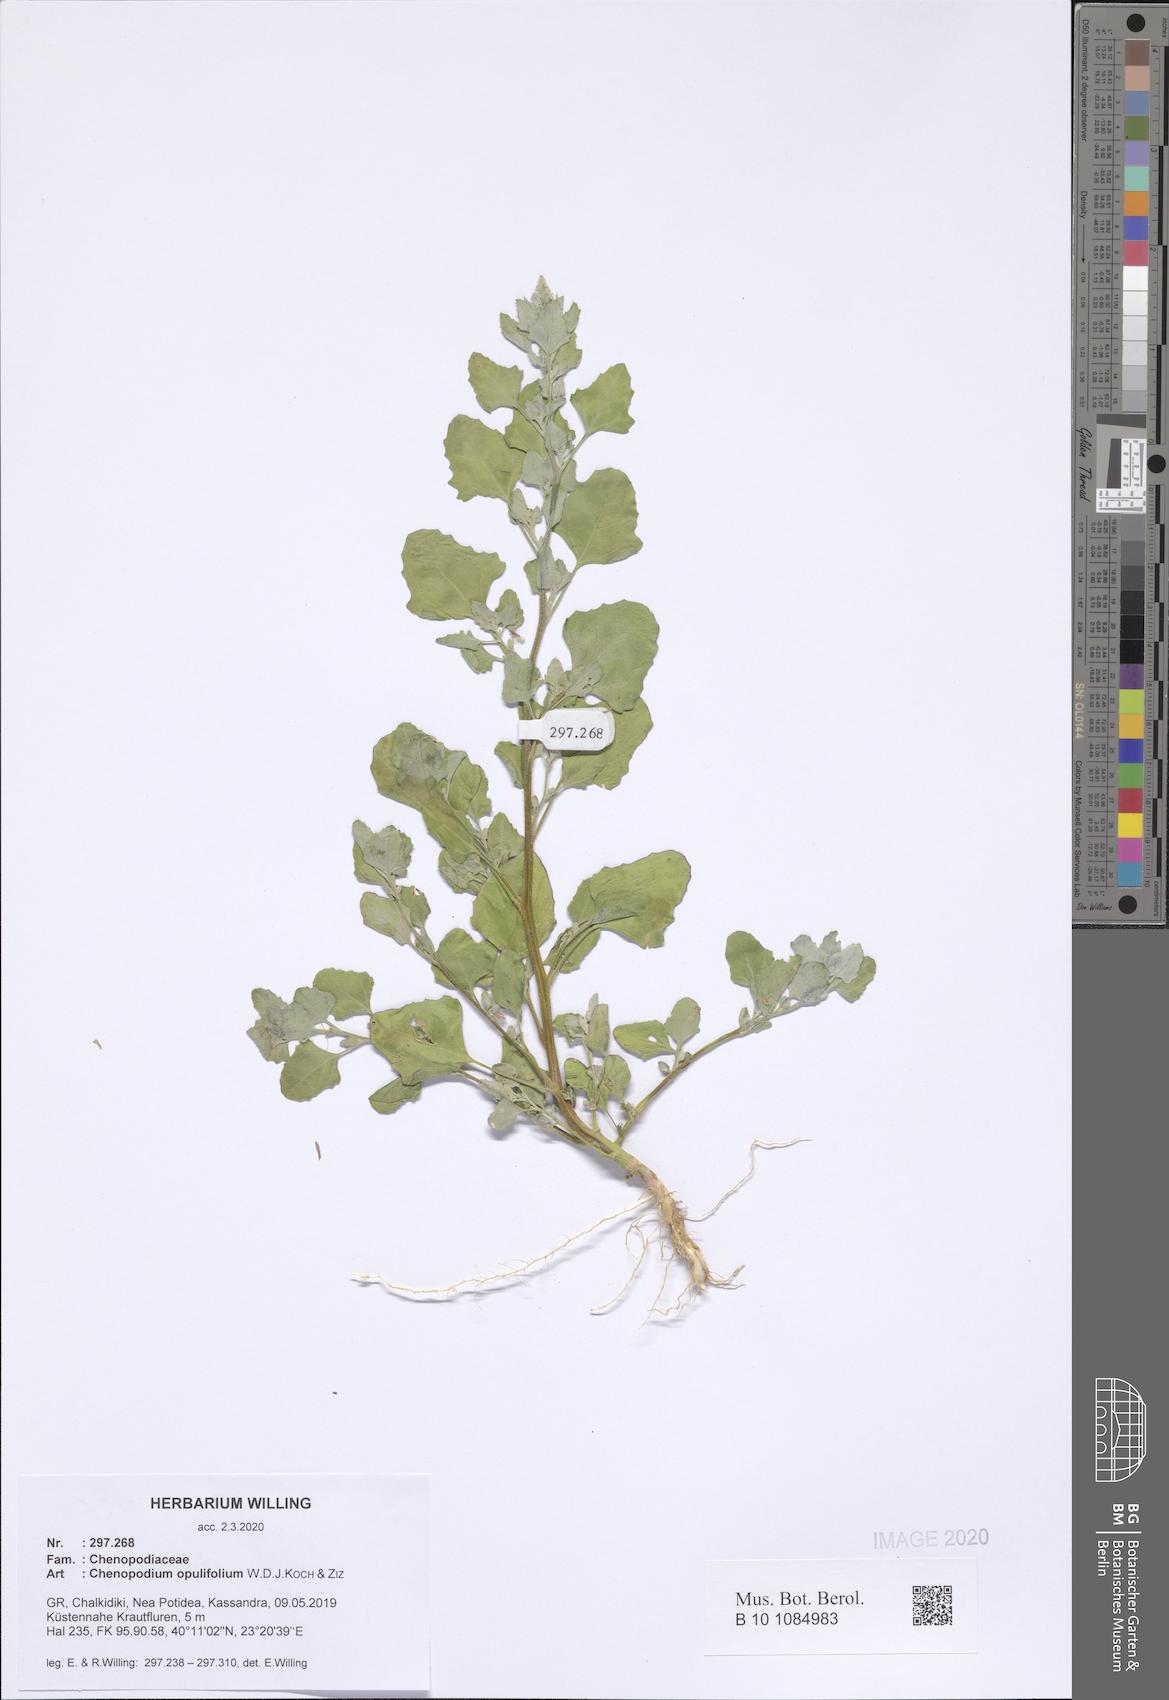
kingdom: Plantae
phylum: Tracheophyta
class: Magnoliopsida
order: Caryophyllales
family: Amaranthaceae
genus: Chenopodium
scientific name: Chenopodium opulifolium
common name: Grey goosefoot
